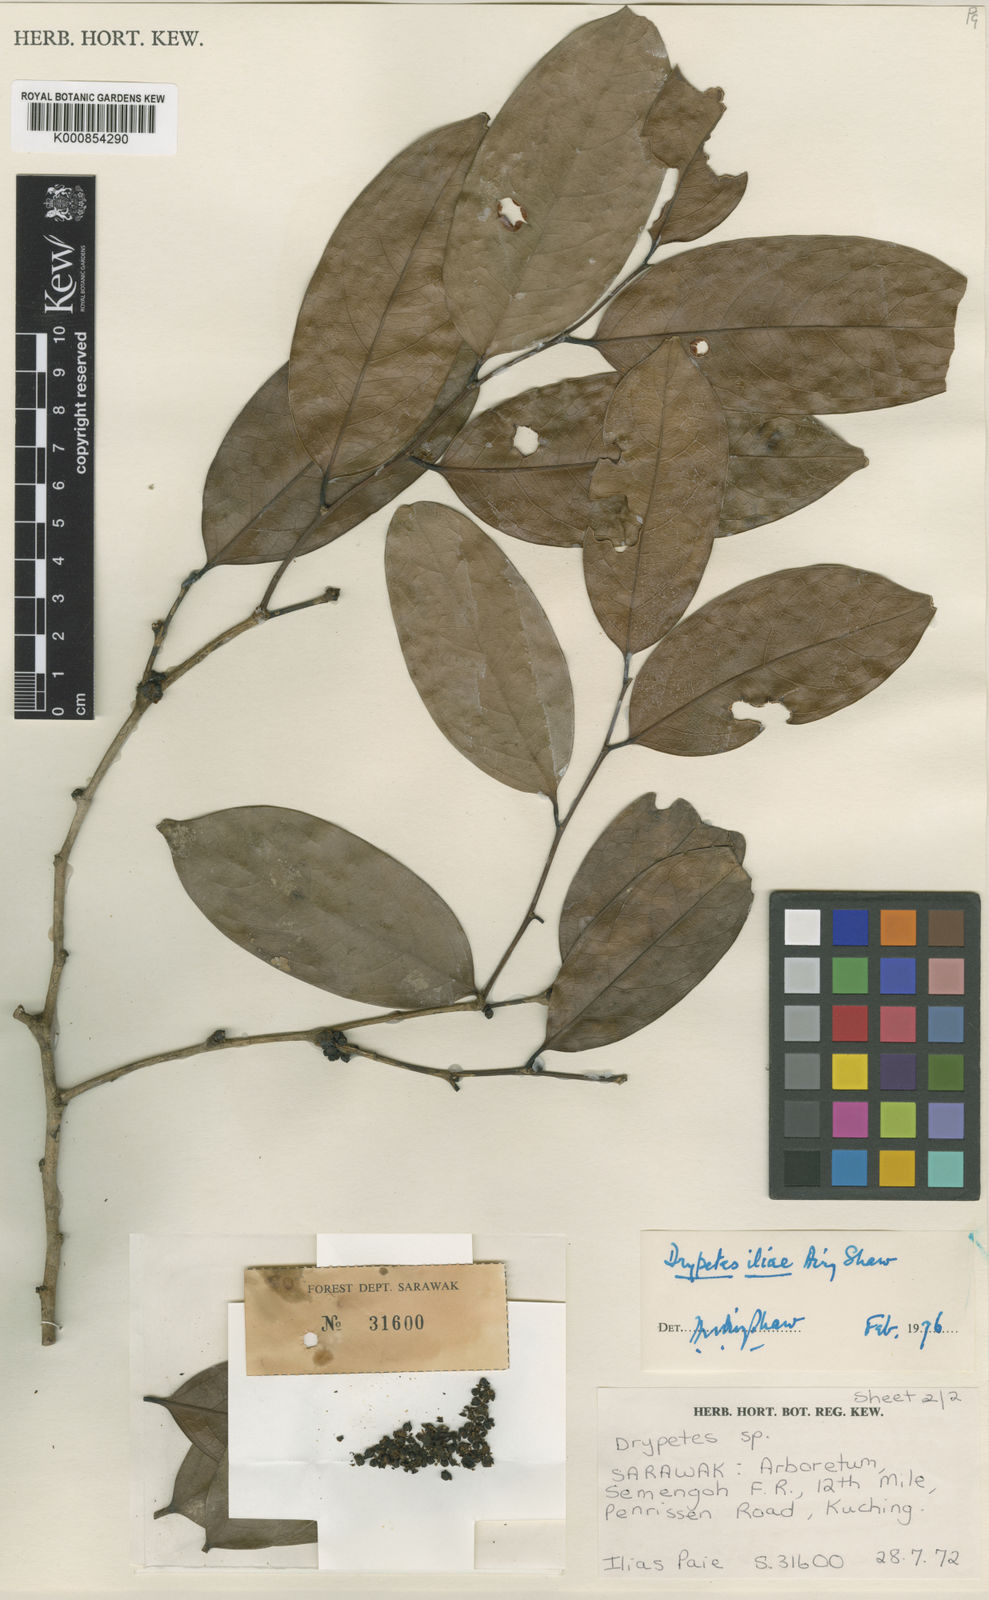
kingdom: Plantae
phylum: Tracheophyta
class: Magnoliopsida
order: Malpighiales
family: Putranjivaceae
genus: Drypetes
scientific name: Drypetes iliae
